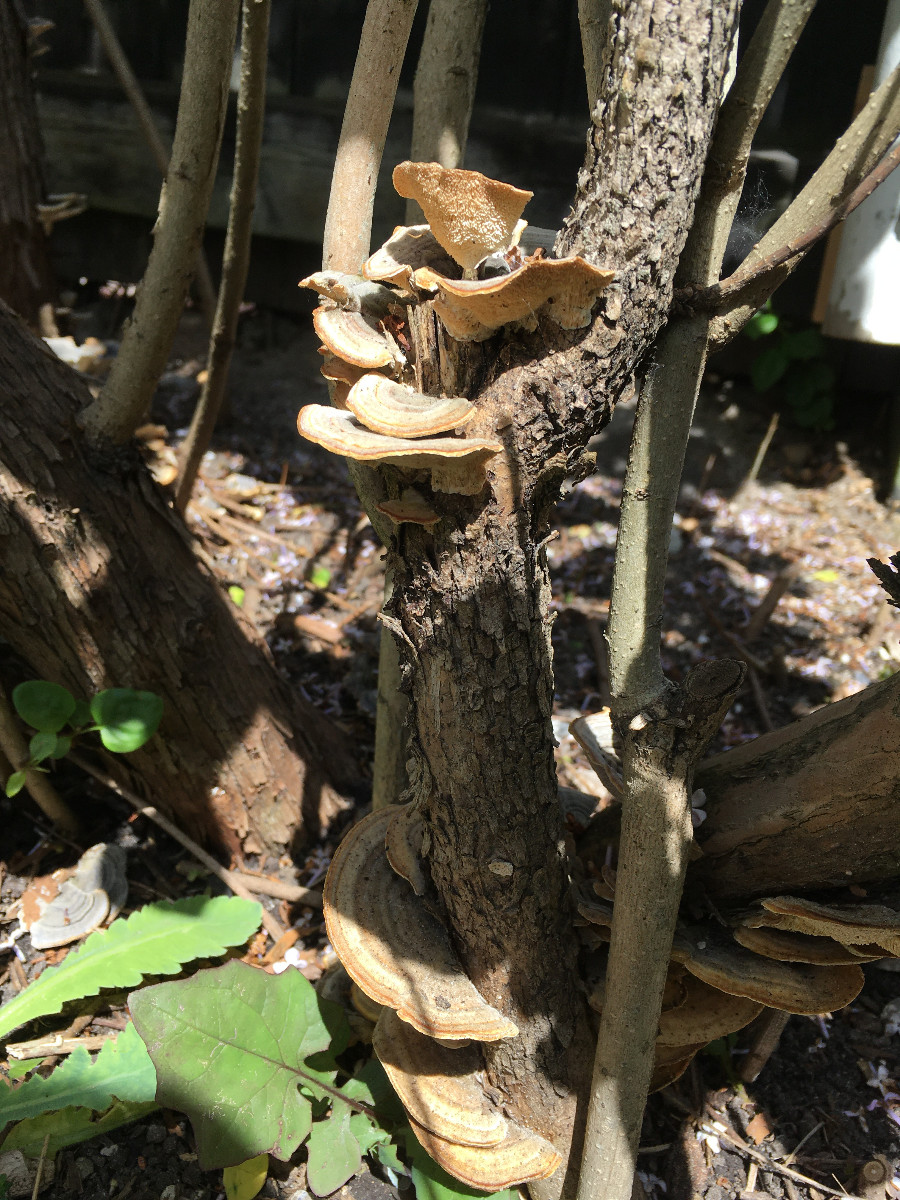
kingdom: Fungi
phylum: Basidiomycota
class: Agaricomycetes
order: Russulales
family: Stereaceae
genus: Stereum
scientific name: Stereum hirsutum
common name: håret lædersvamp
